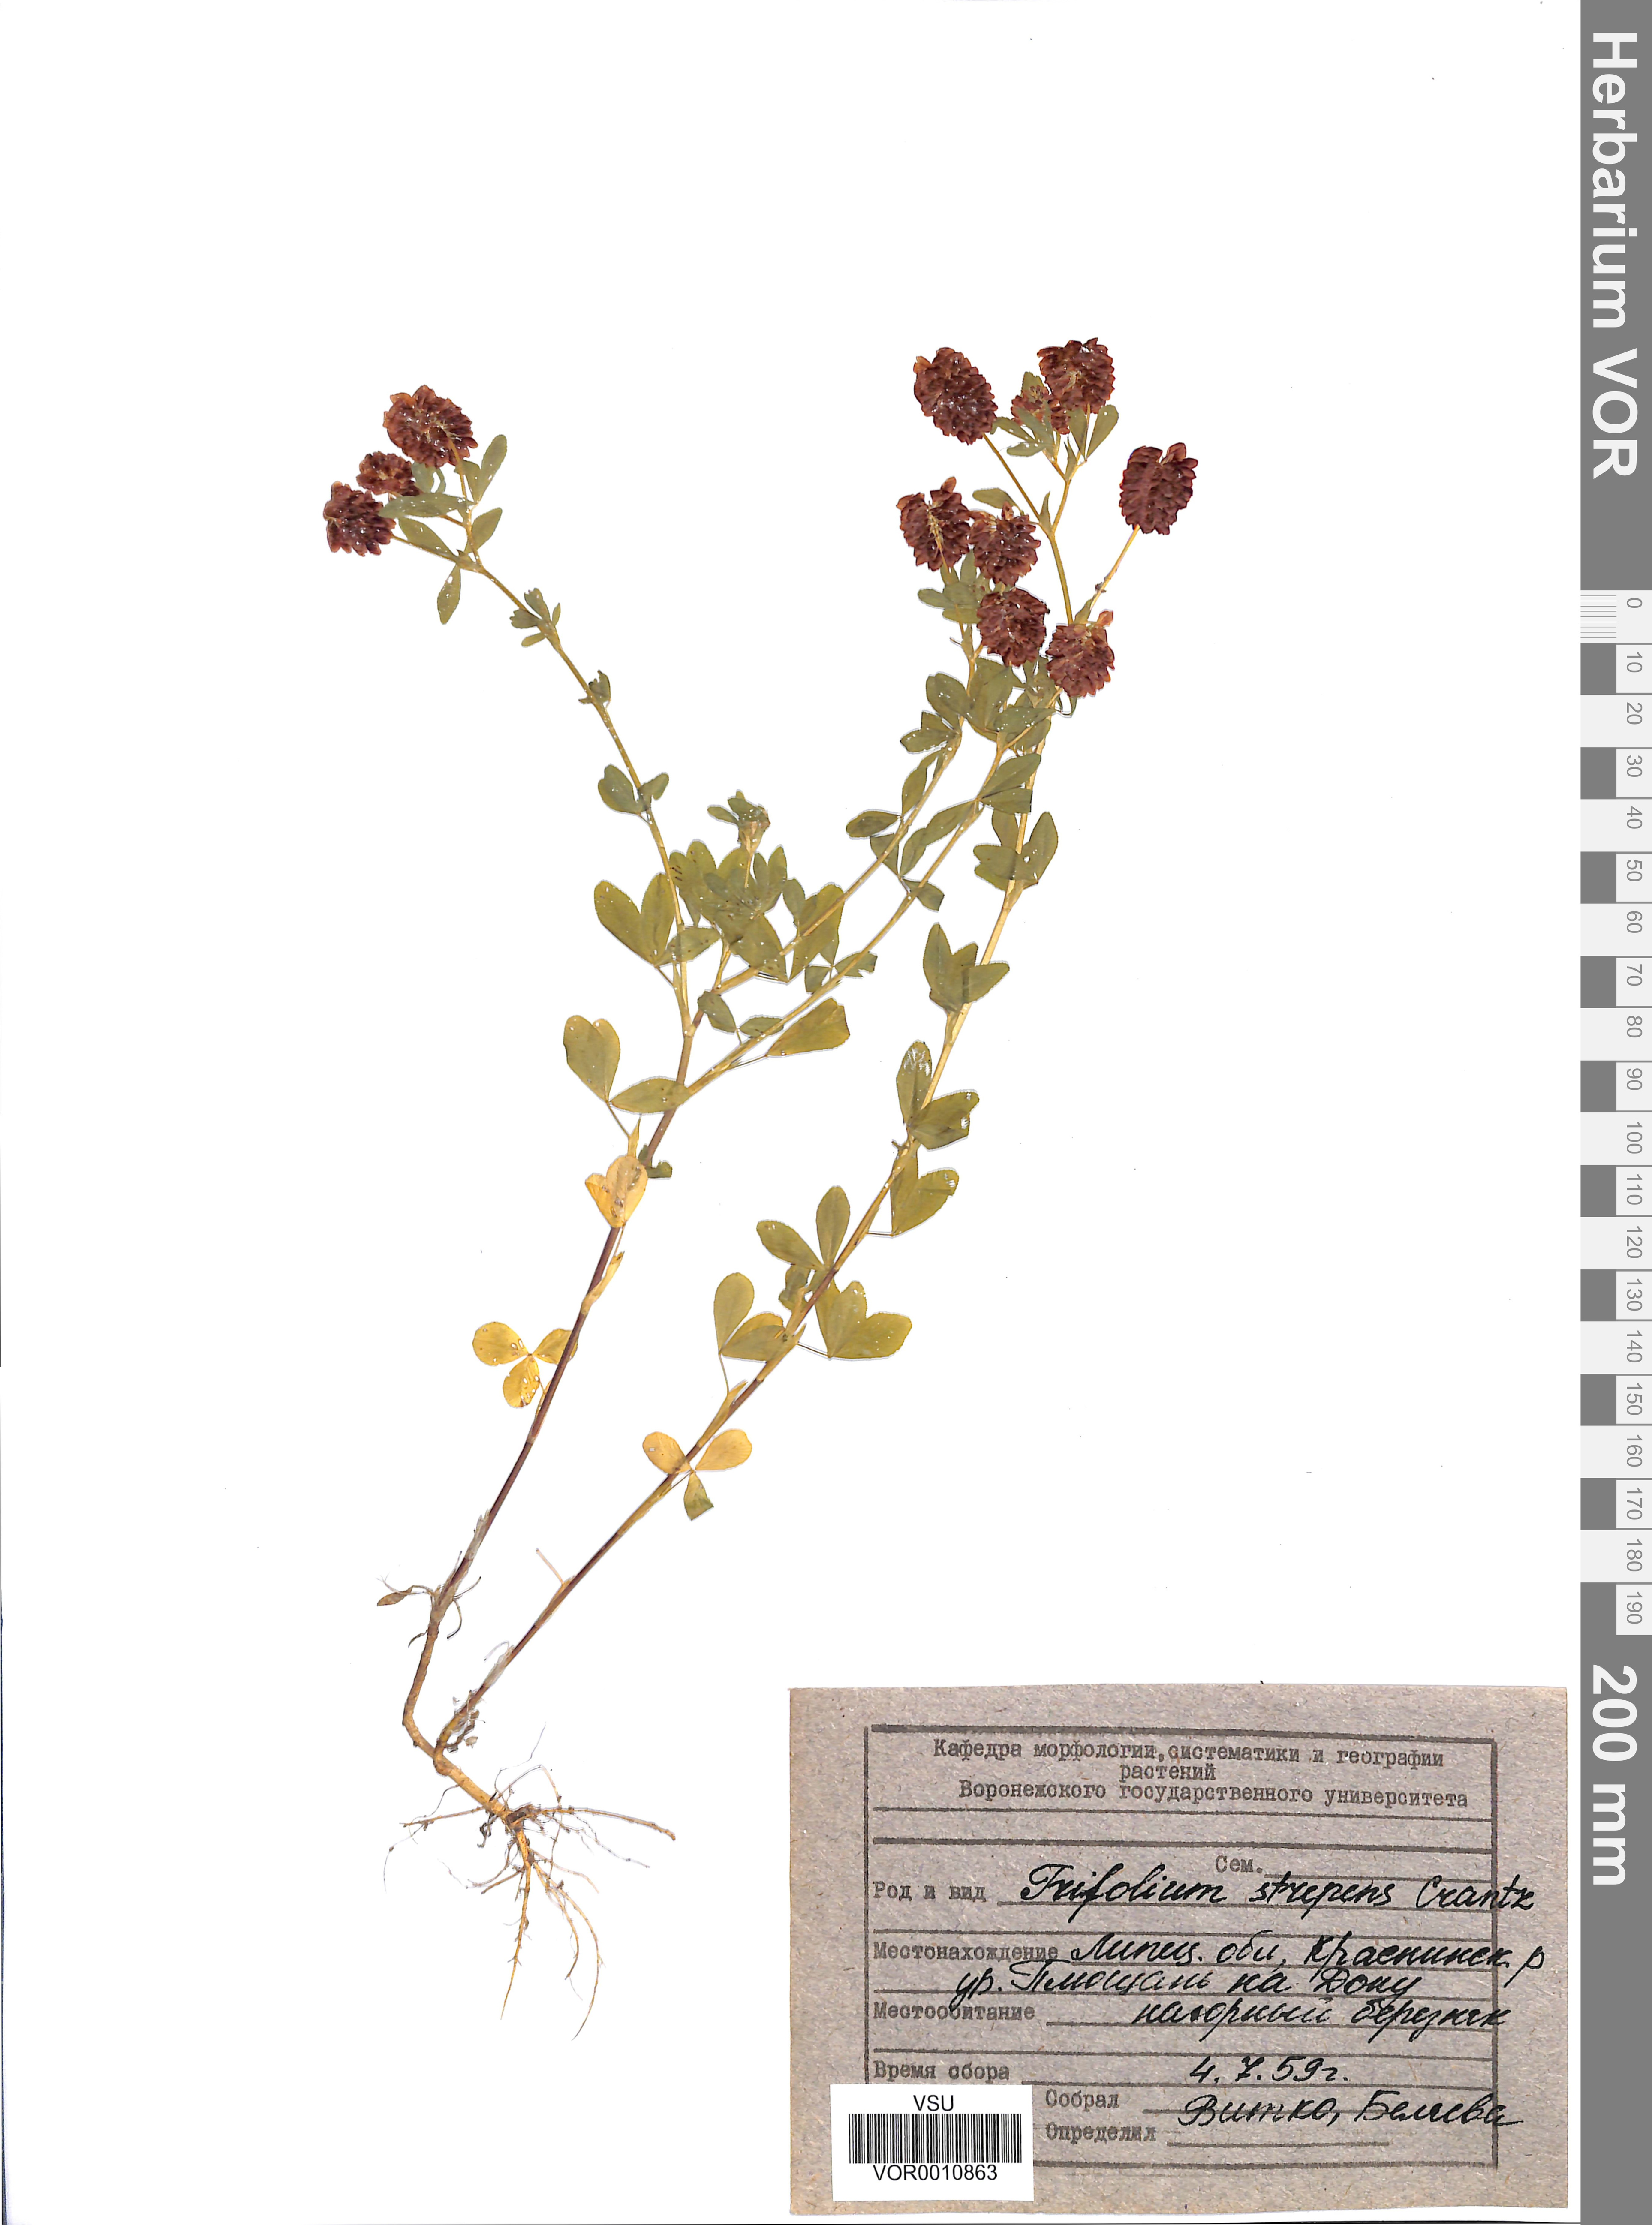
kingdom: Plantae
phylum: Tracheophyta
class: Magnoliopsida
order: Fabales
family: Fabaceae
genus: Trifolium
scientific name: Trifolium aureum
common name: Golden clover
